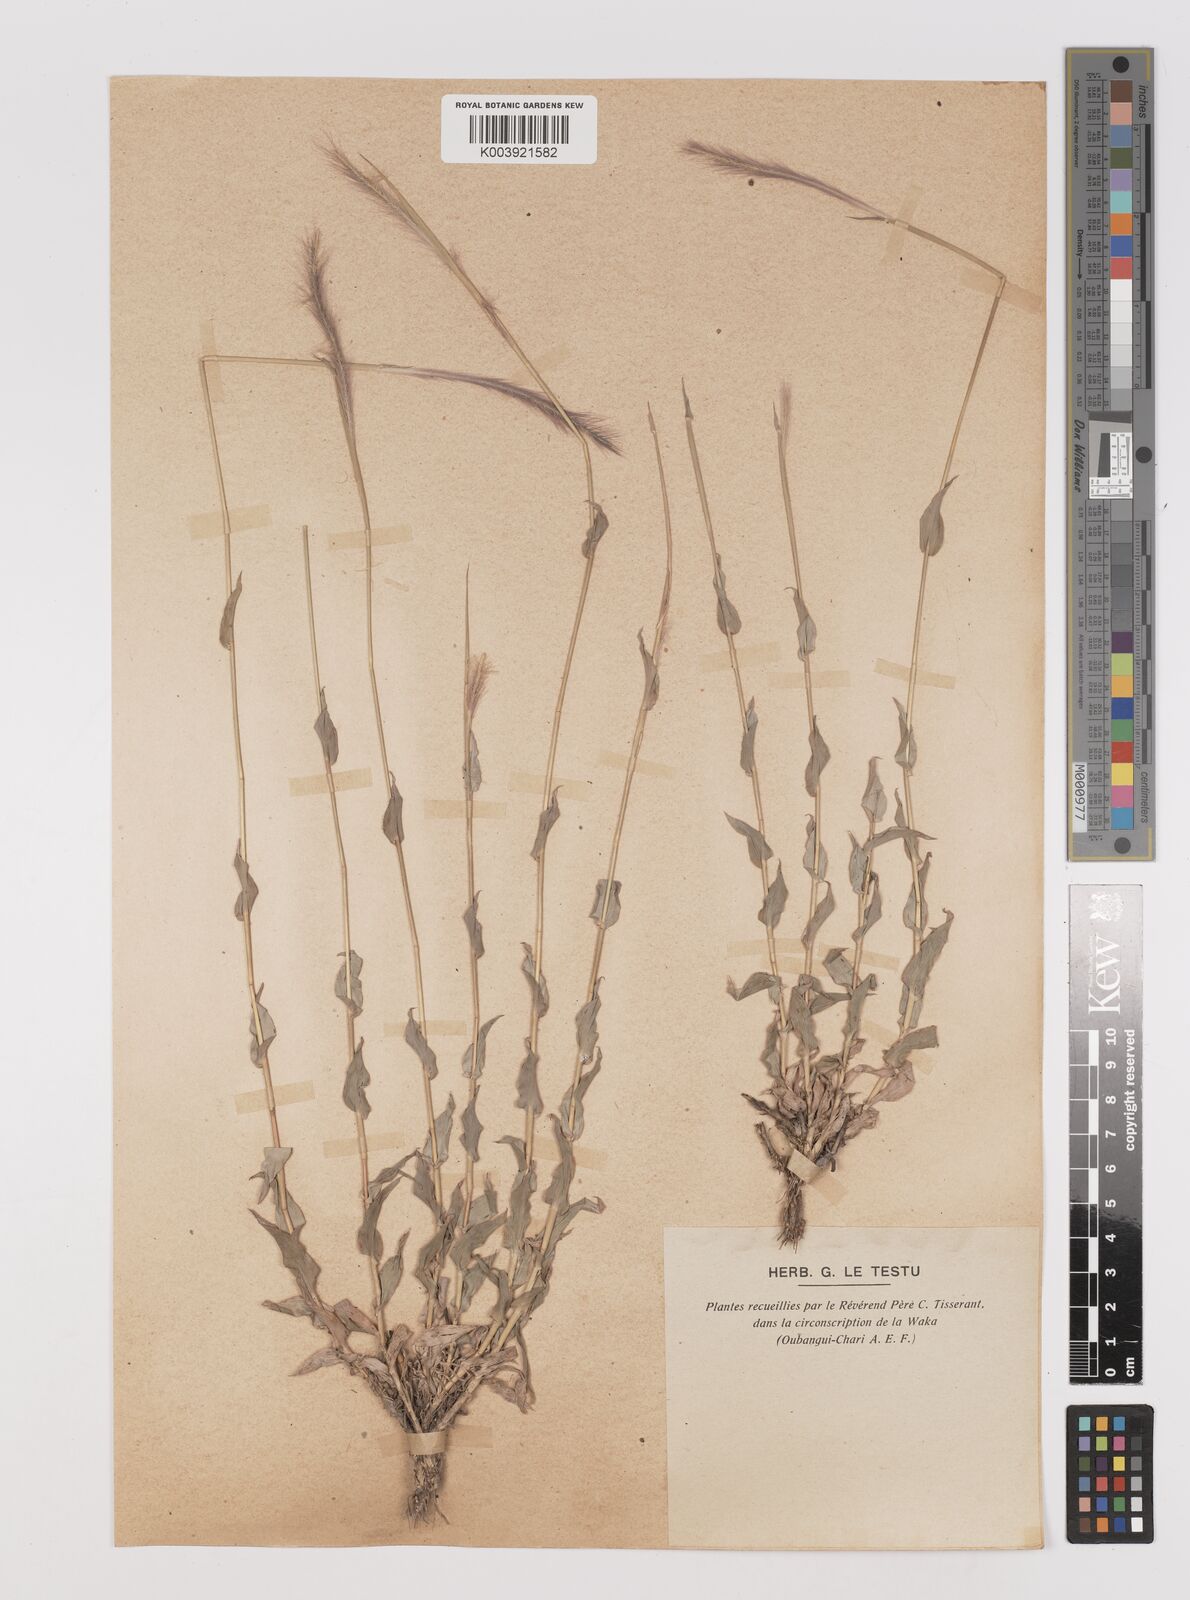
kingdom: Plantae
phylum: Tracheophyta
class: Liliopsida
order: Poales
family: Poaceae
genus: Perotis
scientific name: Perotis patens
